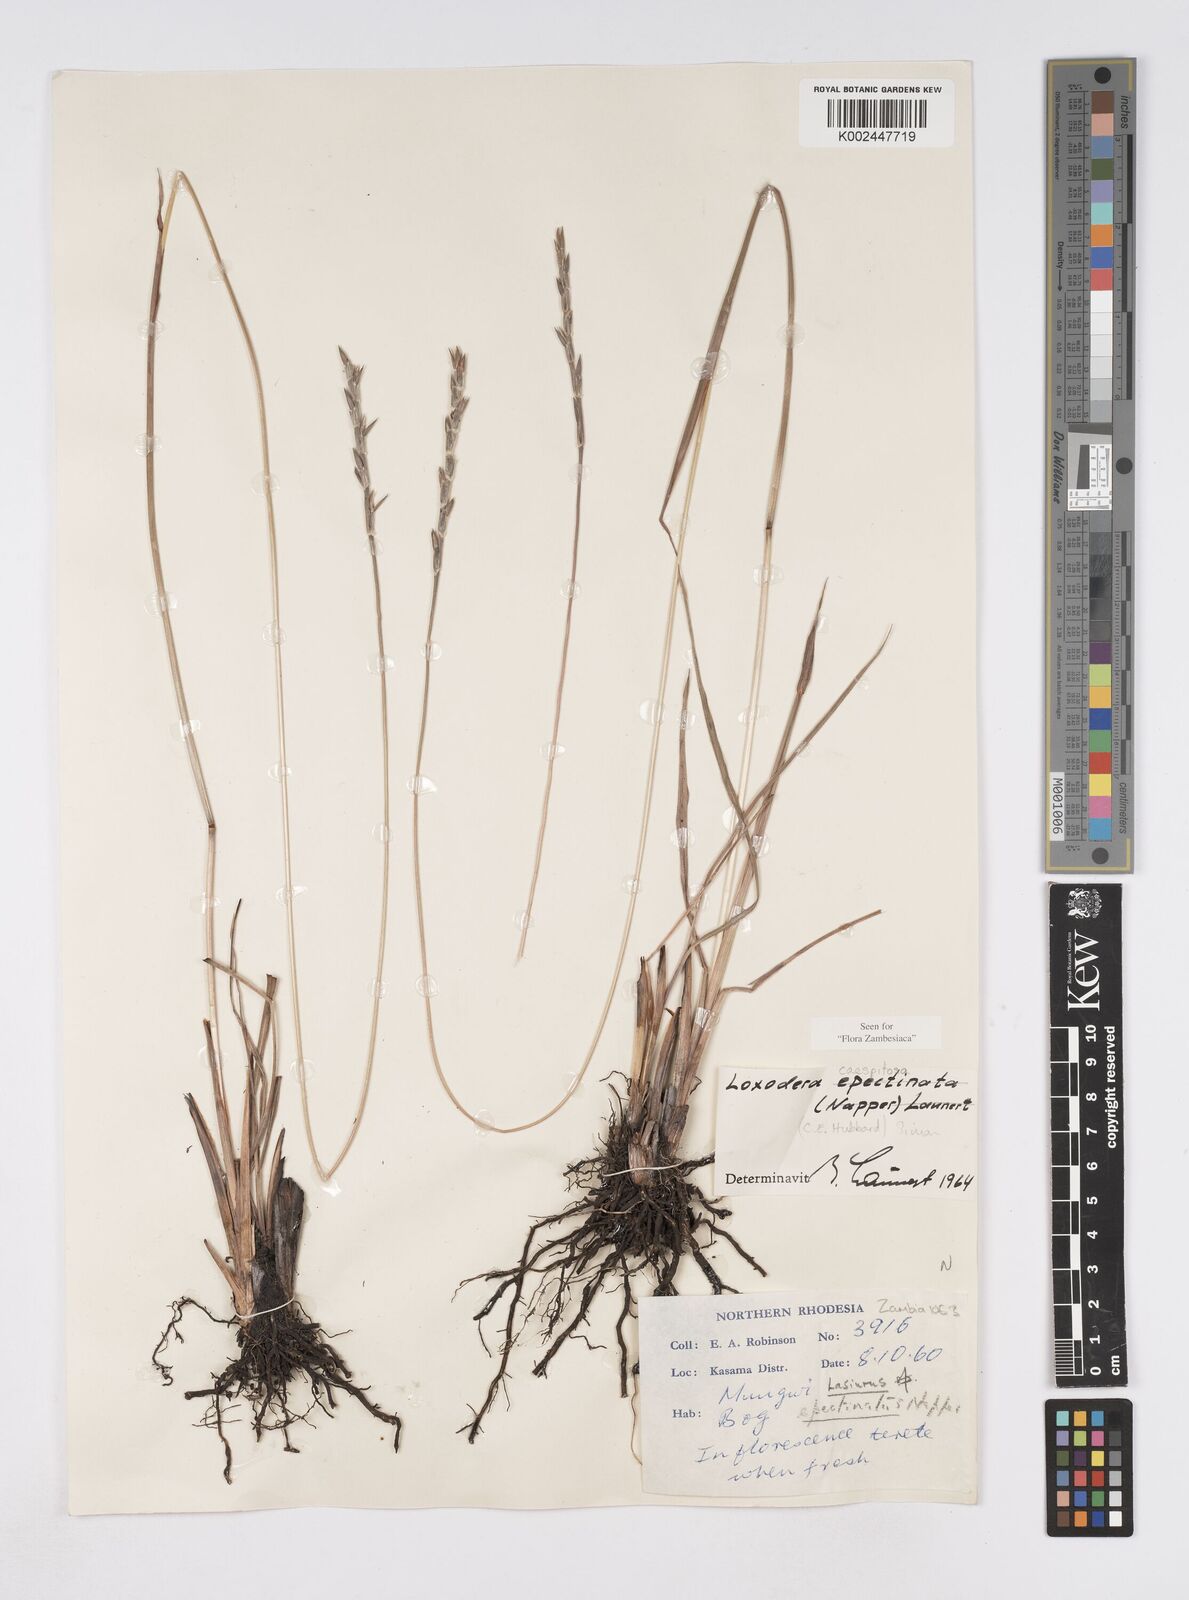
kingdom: Plantae
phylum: Tracheophyta
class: Liliopsida
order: Poales
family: Poaceae
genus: Loxodera
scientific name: Loxodera caespitosa
